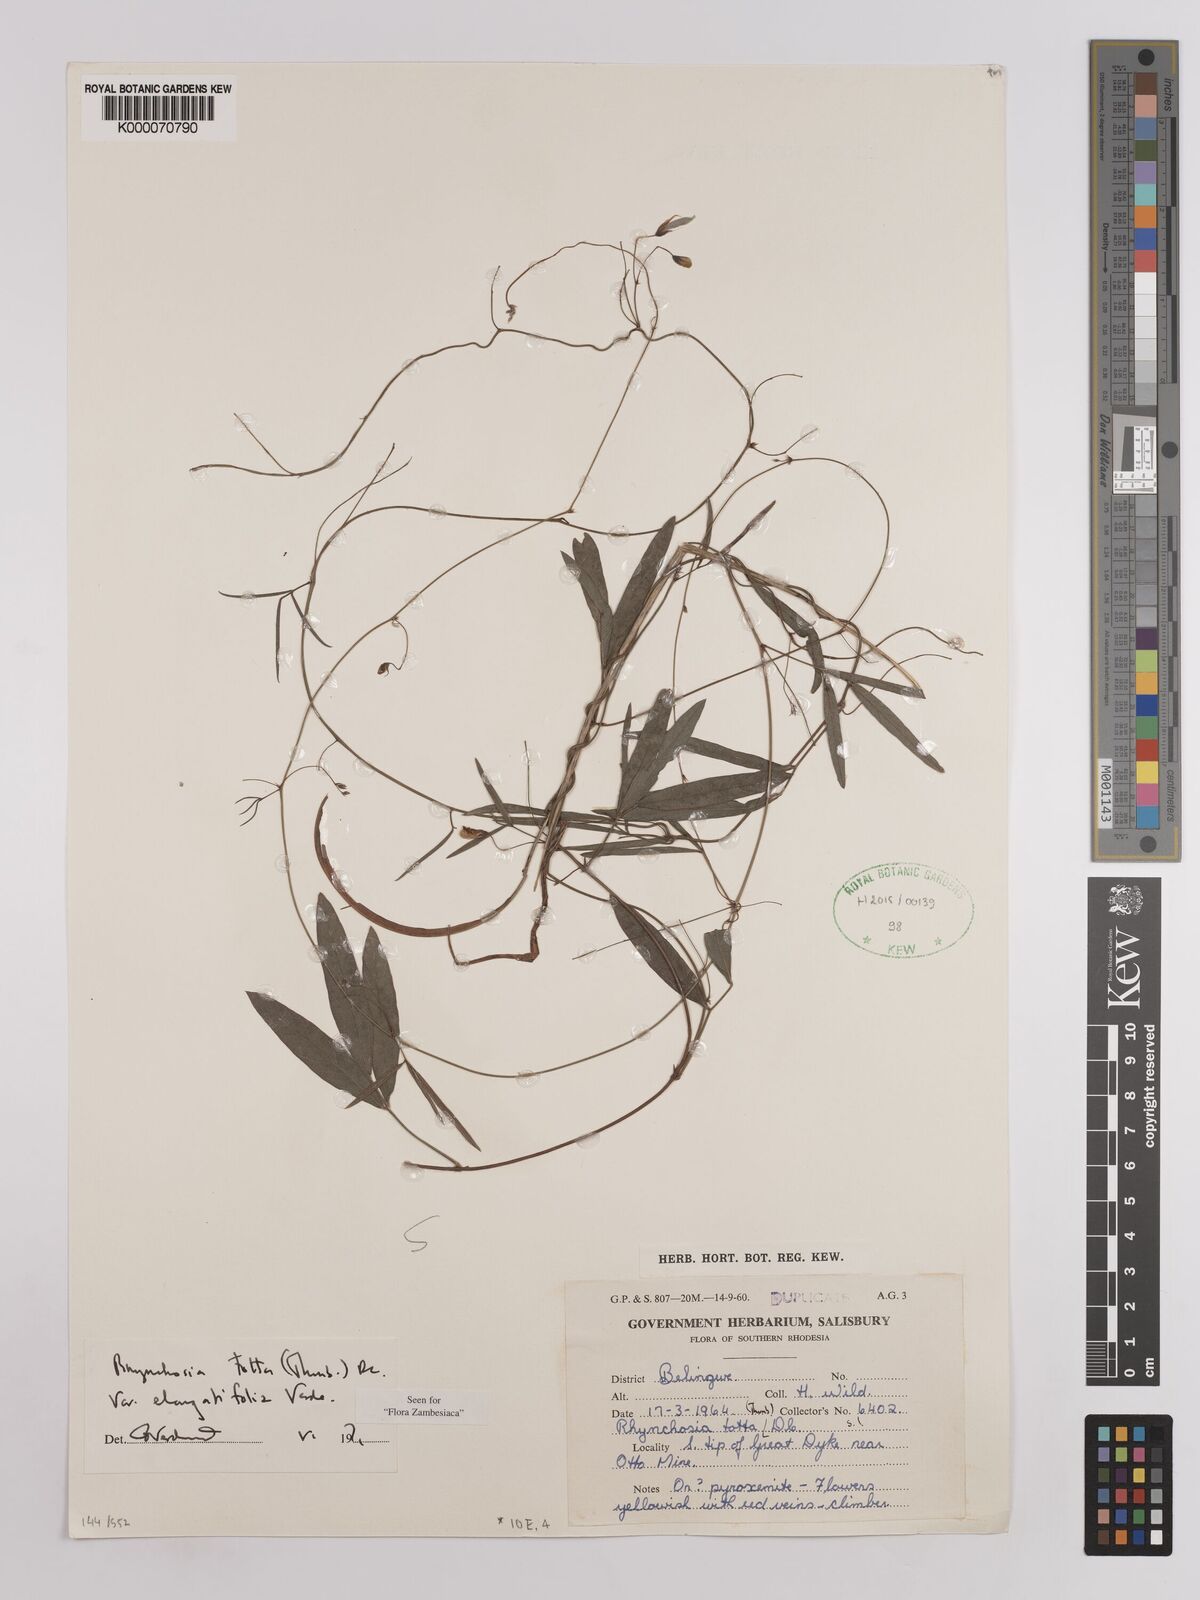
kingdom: Plantae
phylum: Tracheophyta
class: Magnoliopsida
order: Fabales
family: Fabaceae
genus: Rhynchosia
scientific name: Rhynchosia totta
